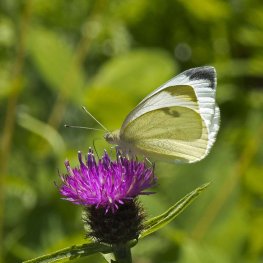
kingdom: Animalia
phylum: Arthropoda
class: Insecta
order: Lepidoptera
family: Pieridae
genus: Pieris
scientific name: Pieris rapae
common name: Cabbage White
